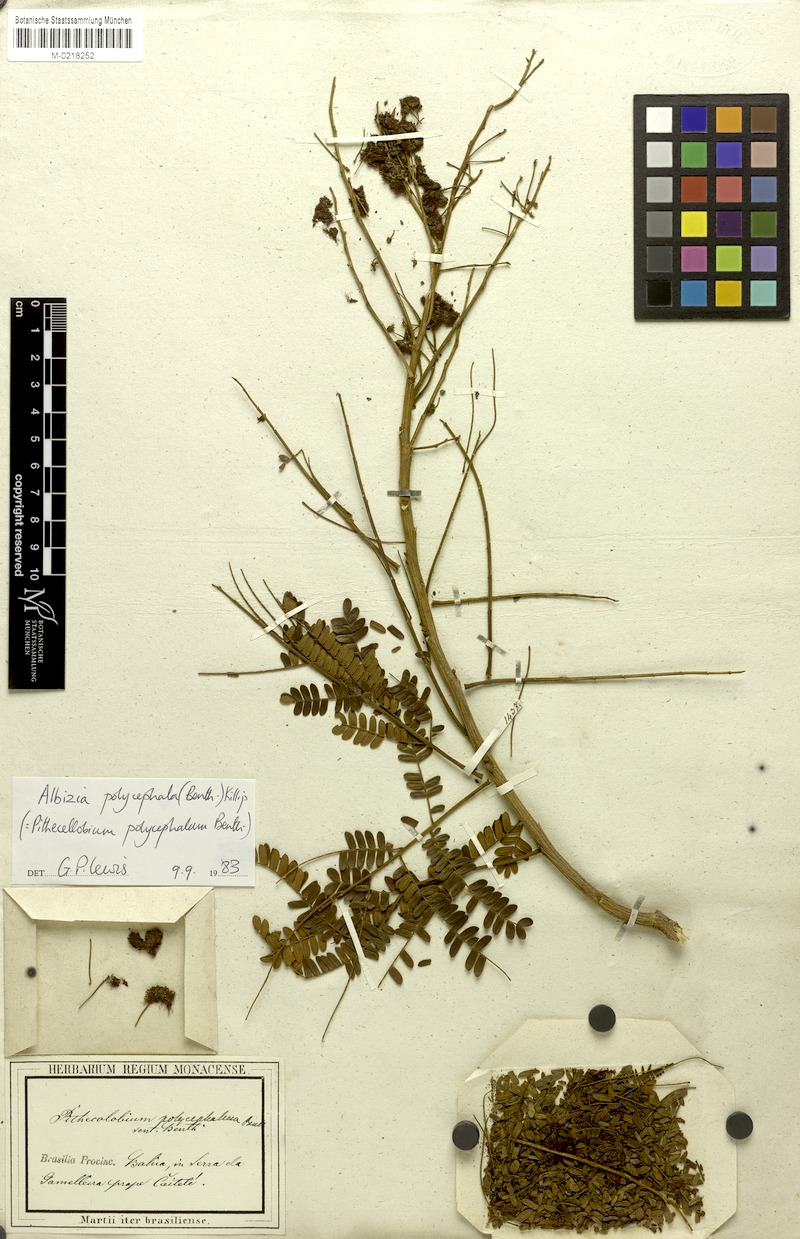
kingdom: Plantae
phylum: Tracheophyta
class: Magnoliopsida
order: Fabales
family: Fabaceae
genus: Albizia
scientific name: Albizia polycephala
